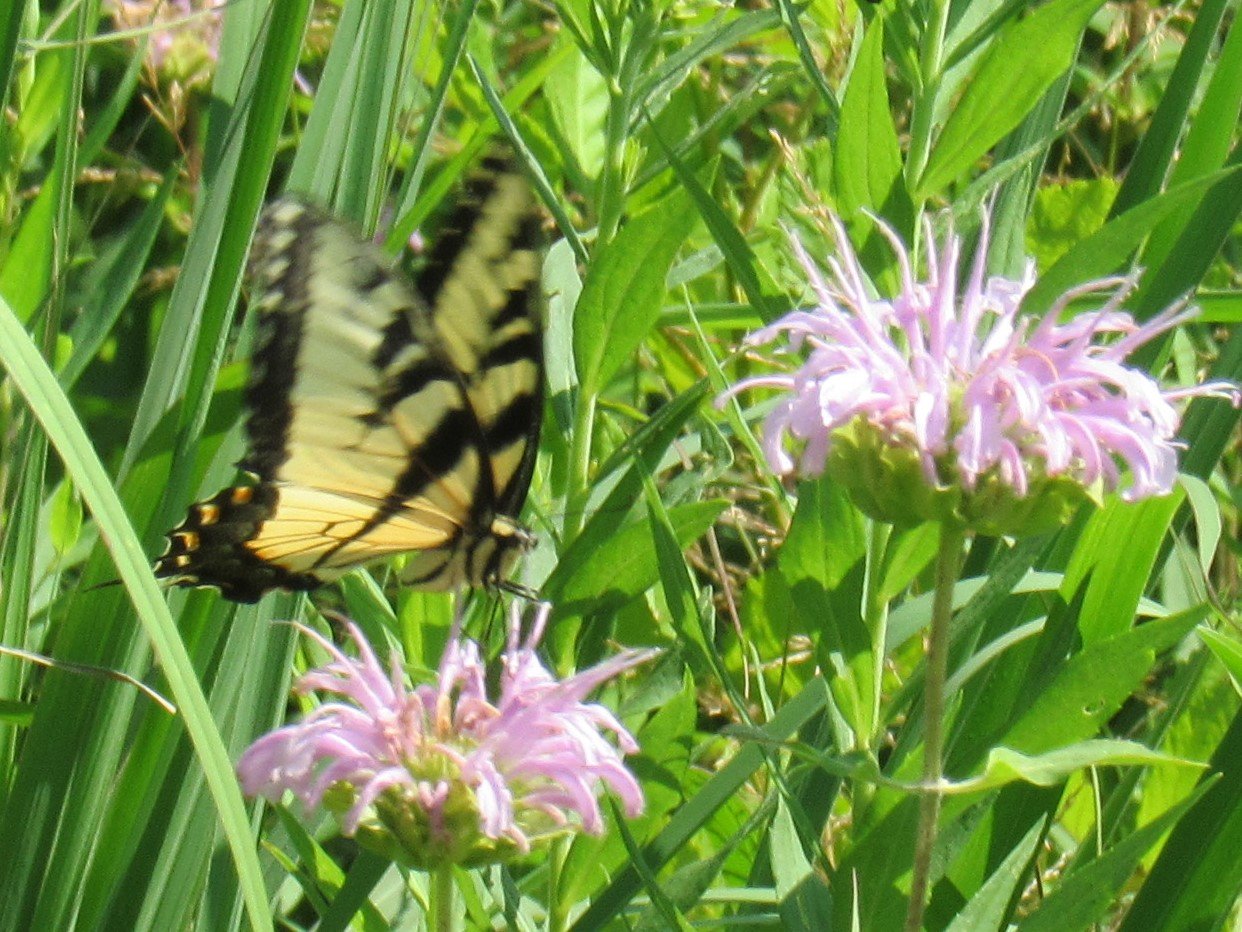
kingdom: Animalia
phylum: Arthropoda
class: Insecta
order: Lepidoptera
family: Papilionidae
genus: Pterourus
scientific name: Pterourus glaucus
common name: Eastern Tiger Swallowtail
